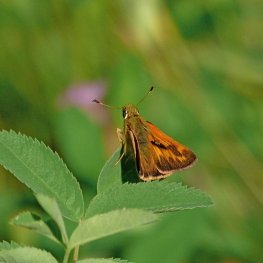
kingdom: Animalia
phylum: Arthropoda
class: Insecta
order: Lepidoptera
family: Hesperiidae
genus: Ochlodes
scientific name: Ochlodes sylvanoides
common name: Woodland Skipper
